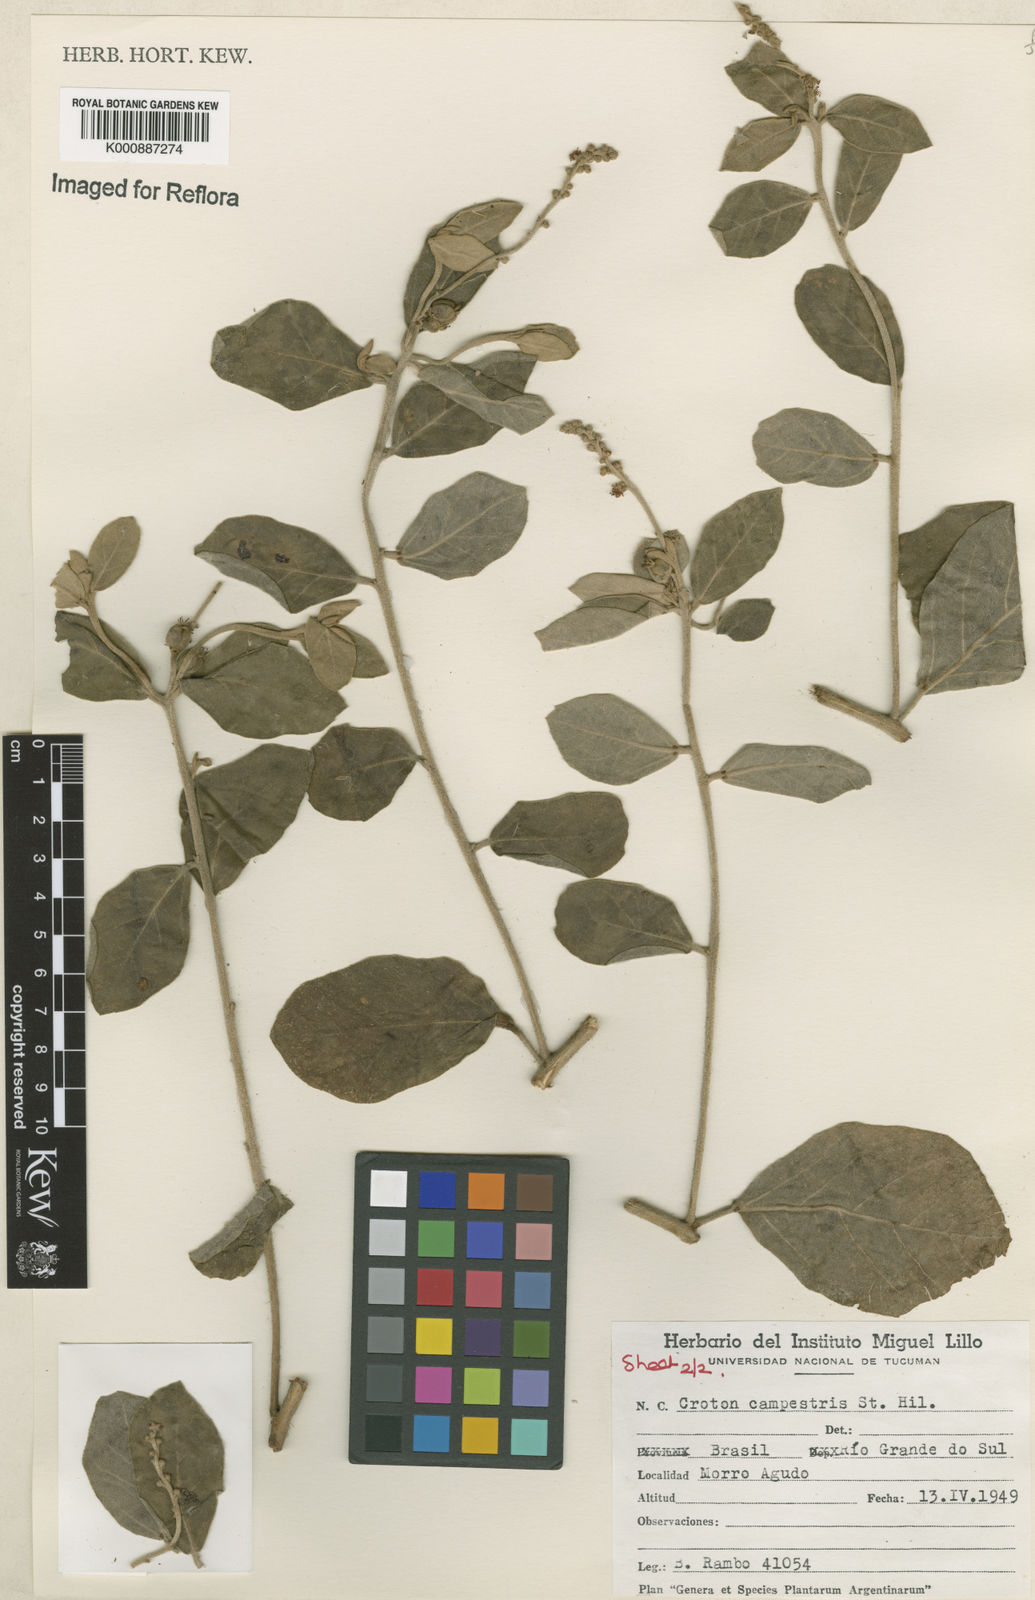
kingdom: Plantae
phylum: Tracheophyta
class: Magnoliopsida
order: Malpighiales
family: Euphorbiaceae
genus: Croton
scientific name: Croton campestris
